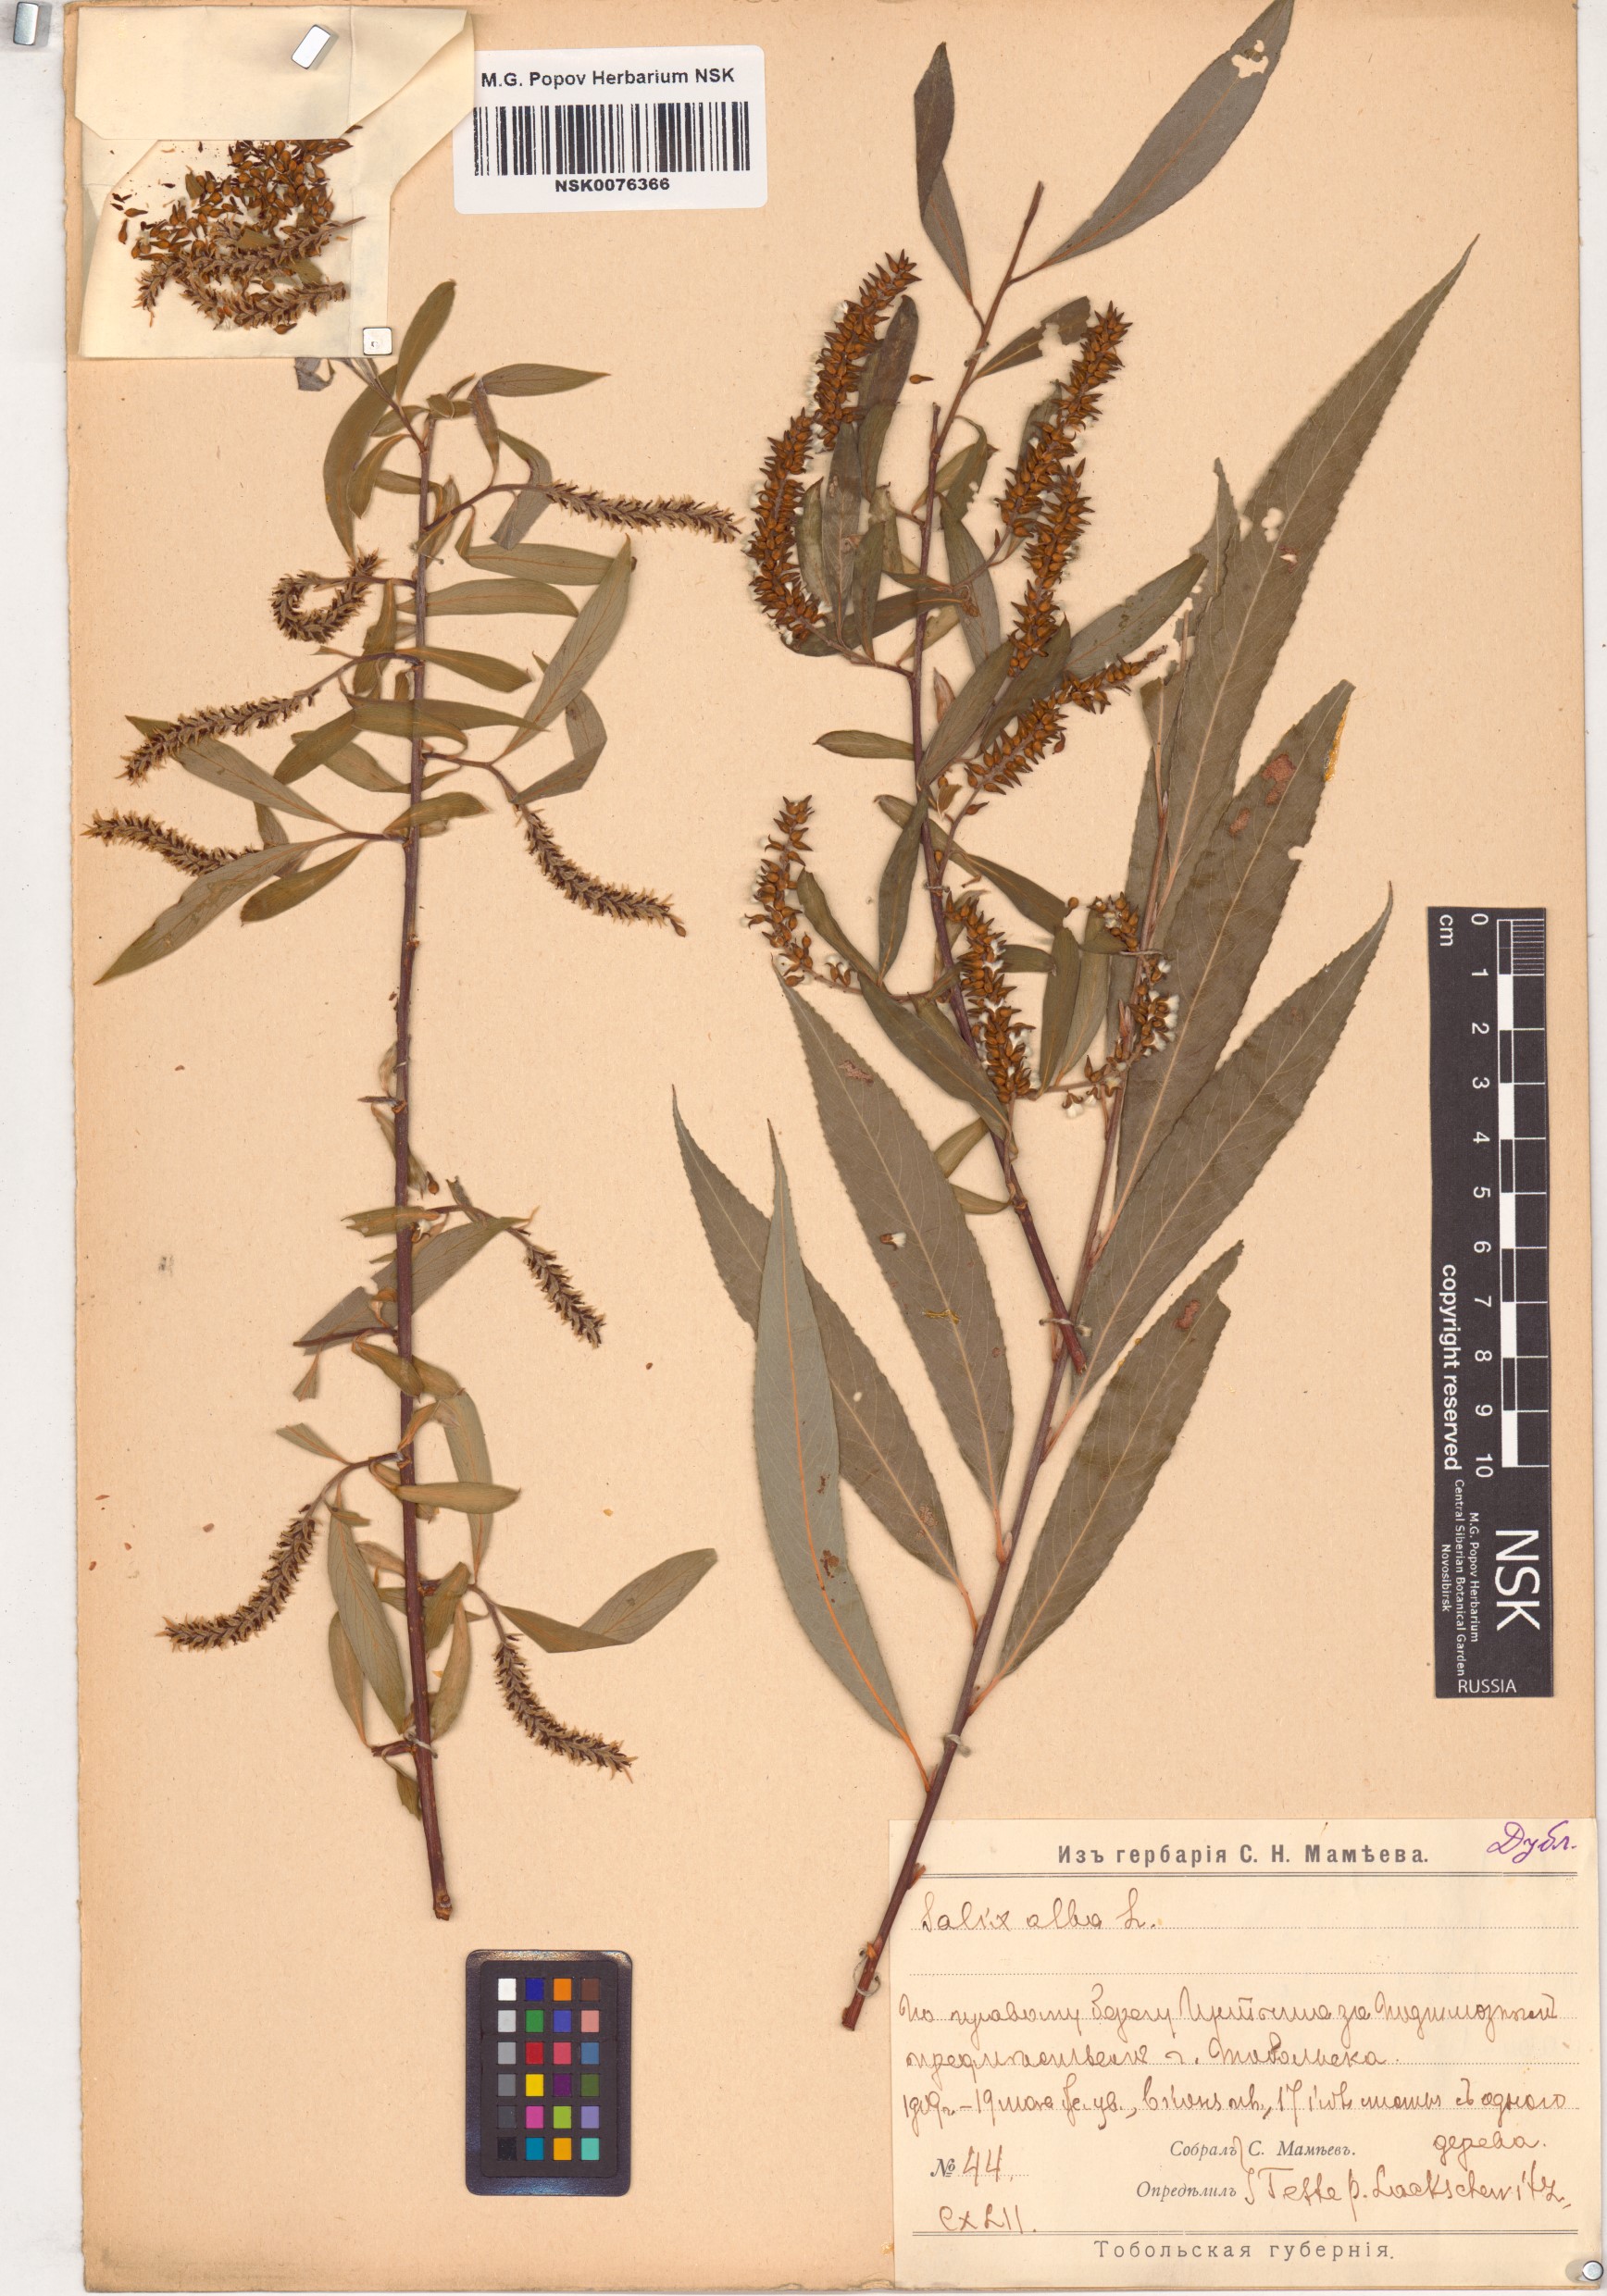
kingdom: Plantae
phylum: Tracheophyta
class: Magnoliopsida
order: Malpighiales
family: Salicaceae
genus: Salix
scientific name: Salix alba
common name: White willow
